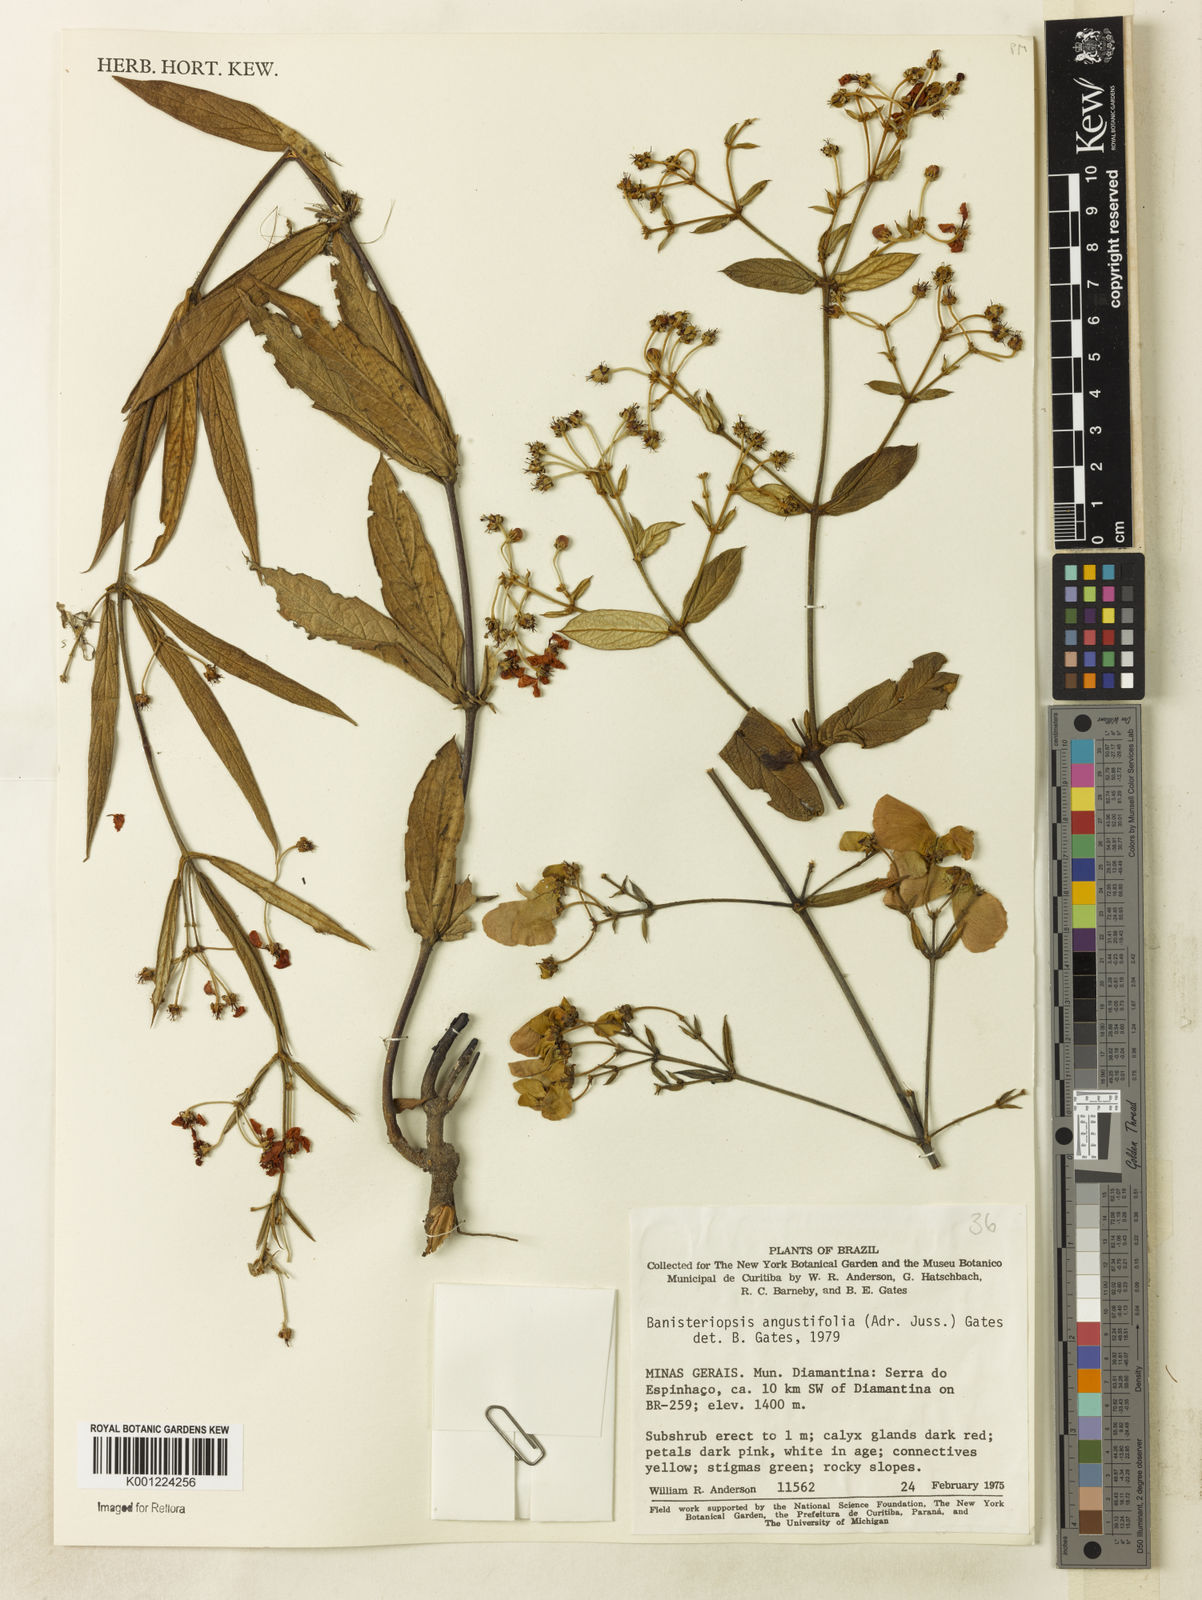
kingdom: Plantae
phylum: Tracheophyta
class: Magnoliopsida
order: Malpighiales
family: Malpighiaceae
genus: Banisteriopsis
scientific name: Banisteriopsis angustifolia
